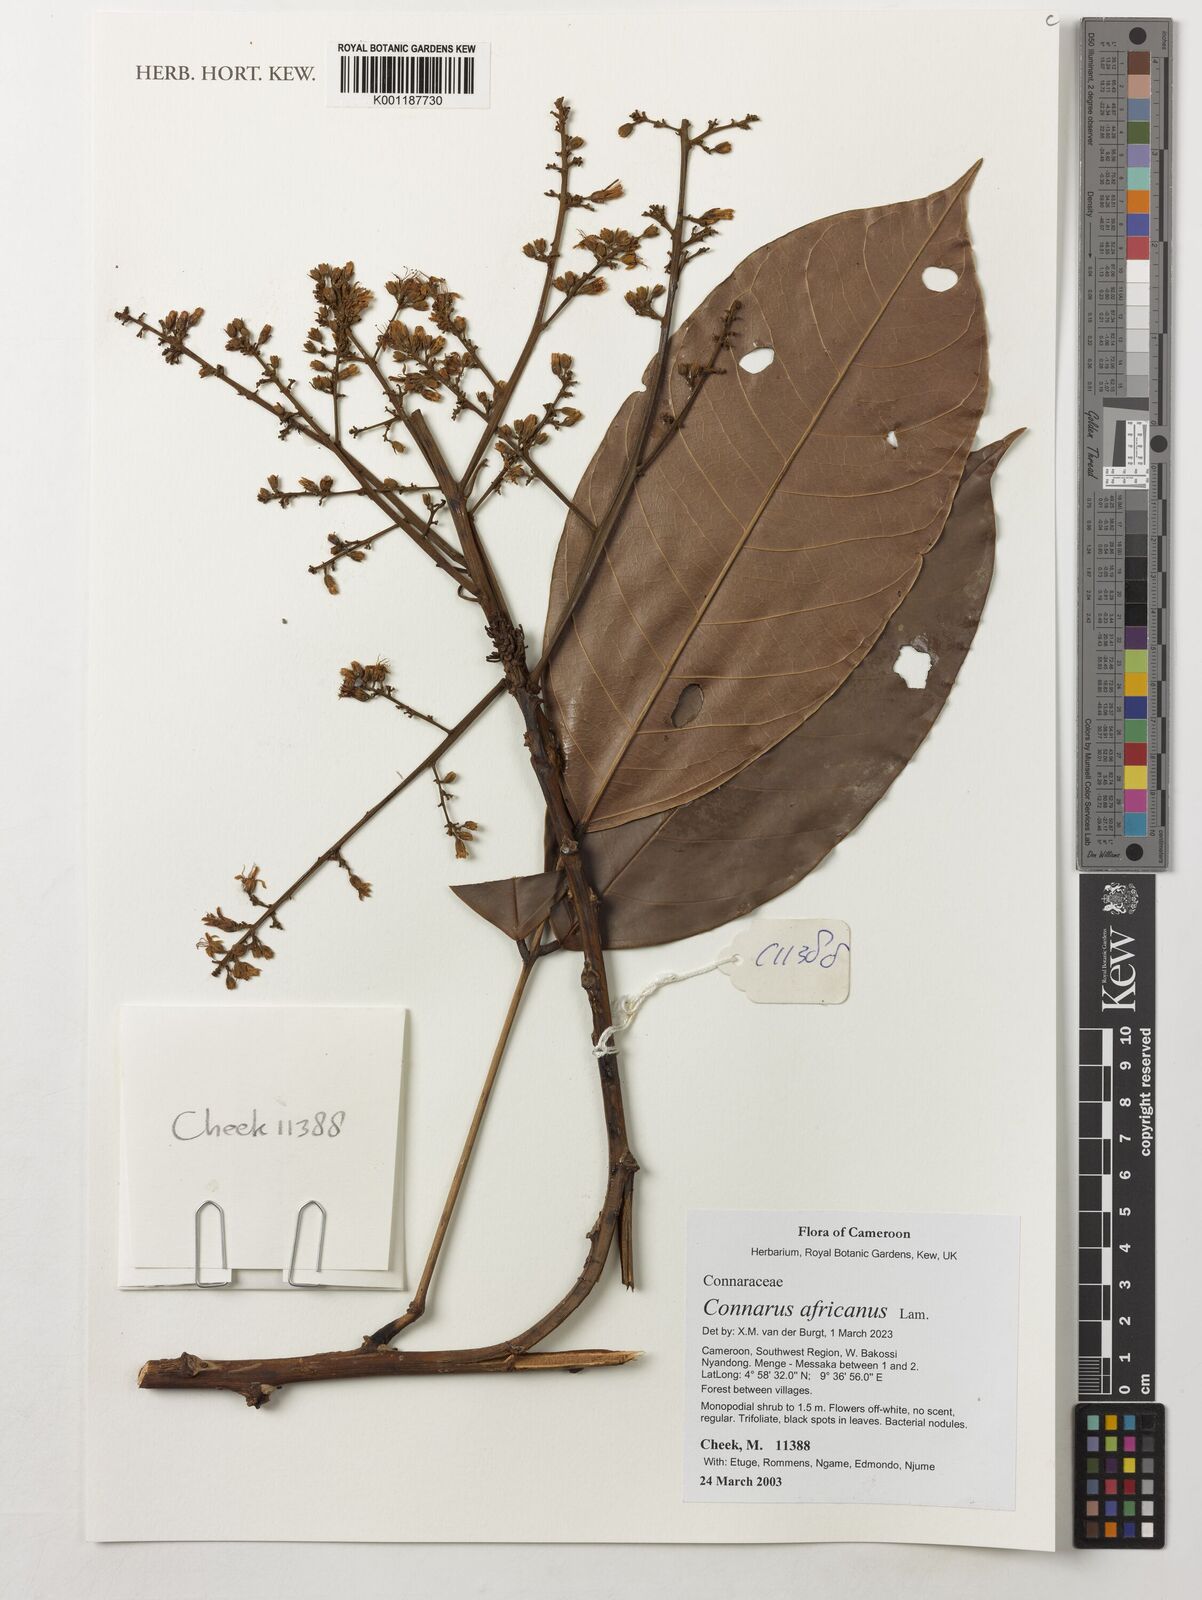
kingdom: Plantae
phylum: Tracheophyta
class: Magnoliopsida
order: Oxalidales
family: Connaraceae
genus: Connarus
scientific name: Connarus africanus
